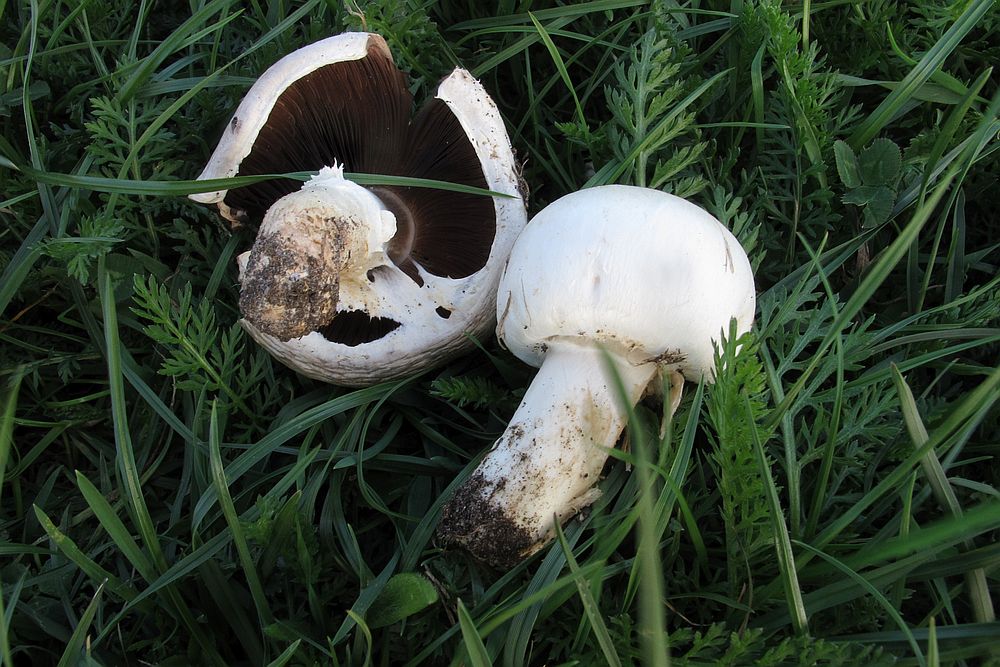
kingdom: Fungi
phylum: Basidiomycota
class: Agaricomycetes
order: Agaricales
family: Agaricaceae
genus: Agaricus
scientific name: Agaricus campestris
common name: mark-champignon
